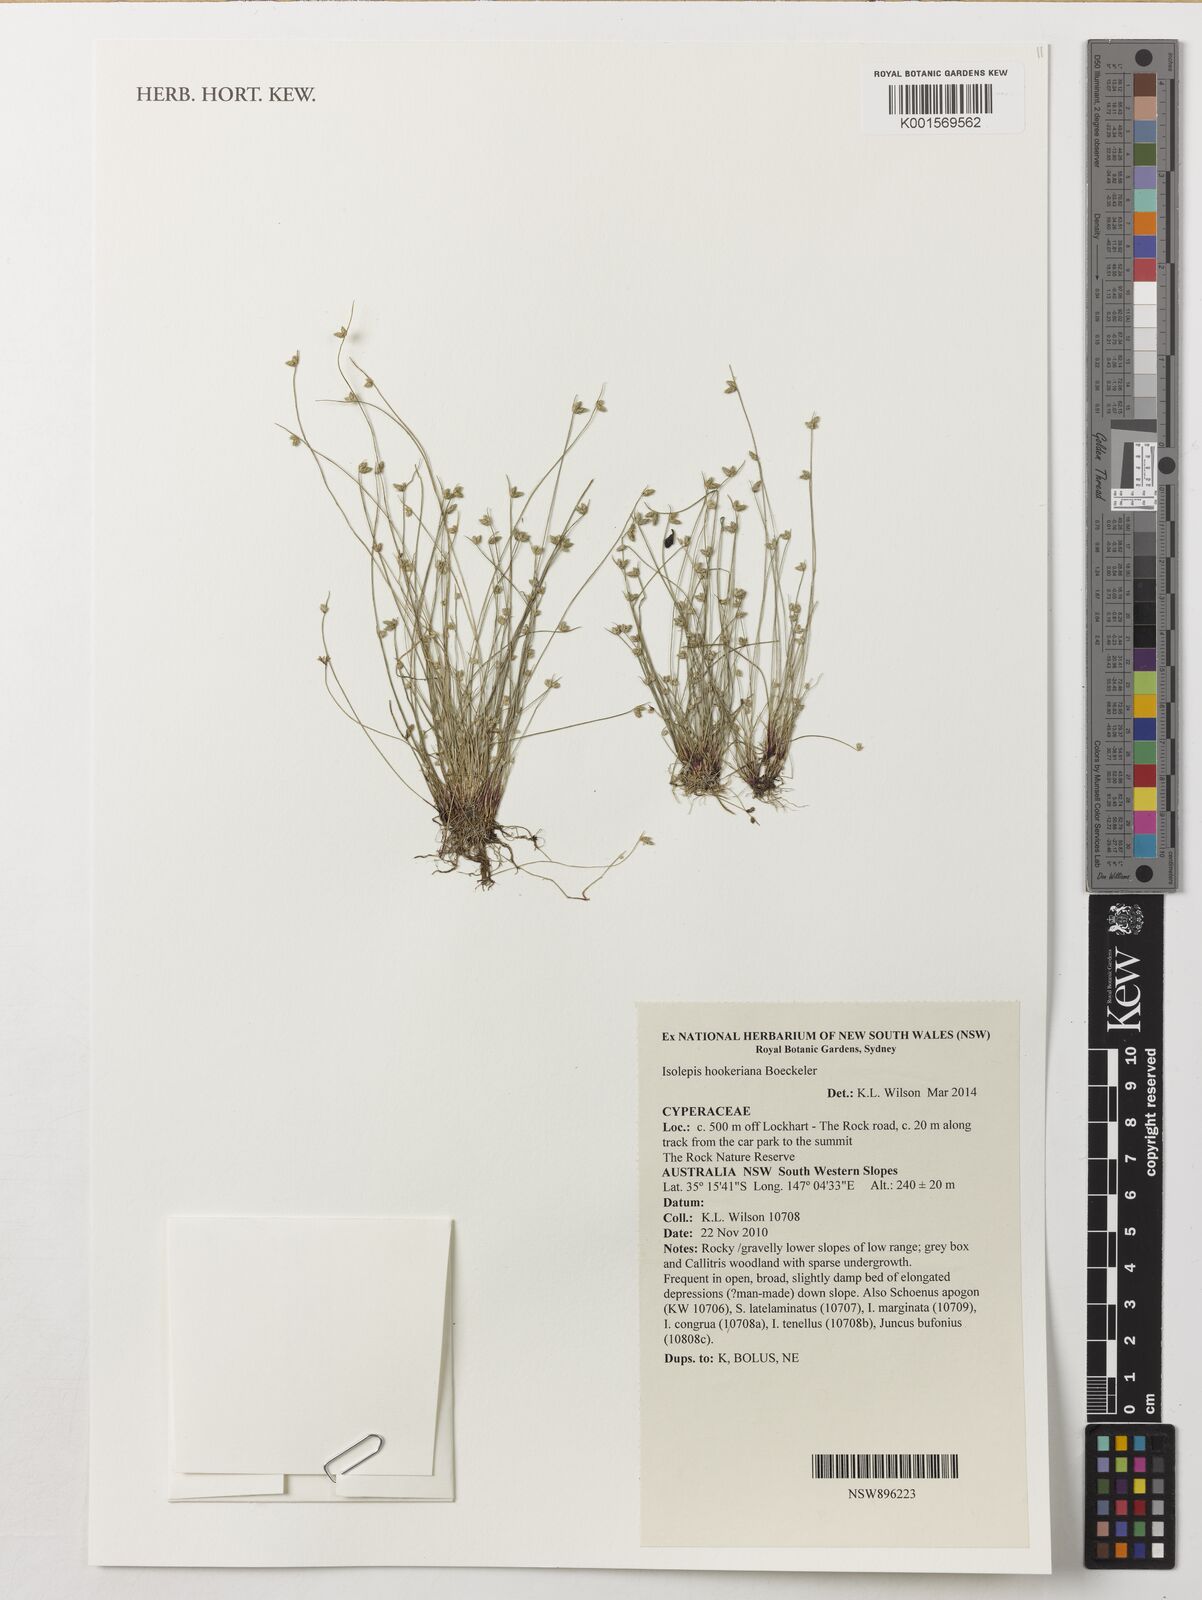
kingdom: Plantae
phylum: Tracheophyta
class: Liliopsida
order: Poales
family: Cyperaceae
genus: Isolepis
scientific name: Isolepis multicaulis
